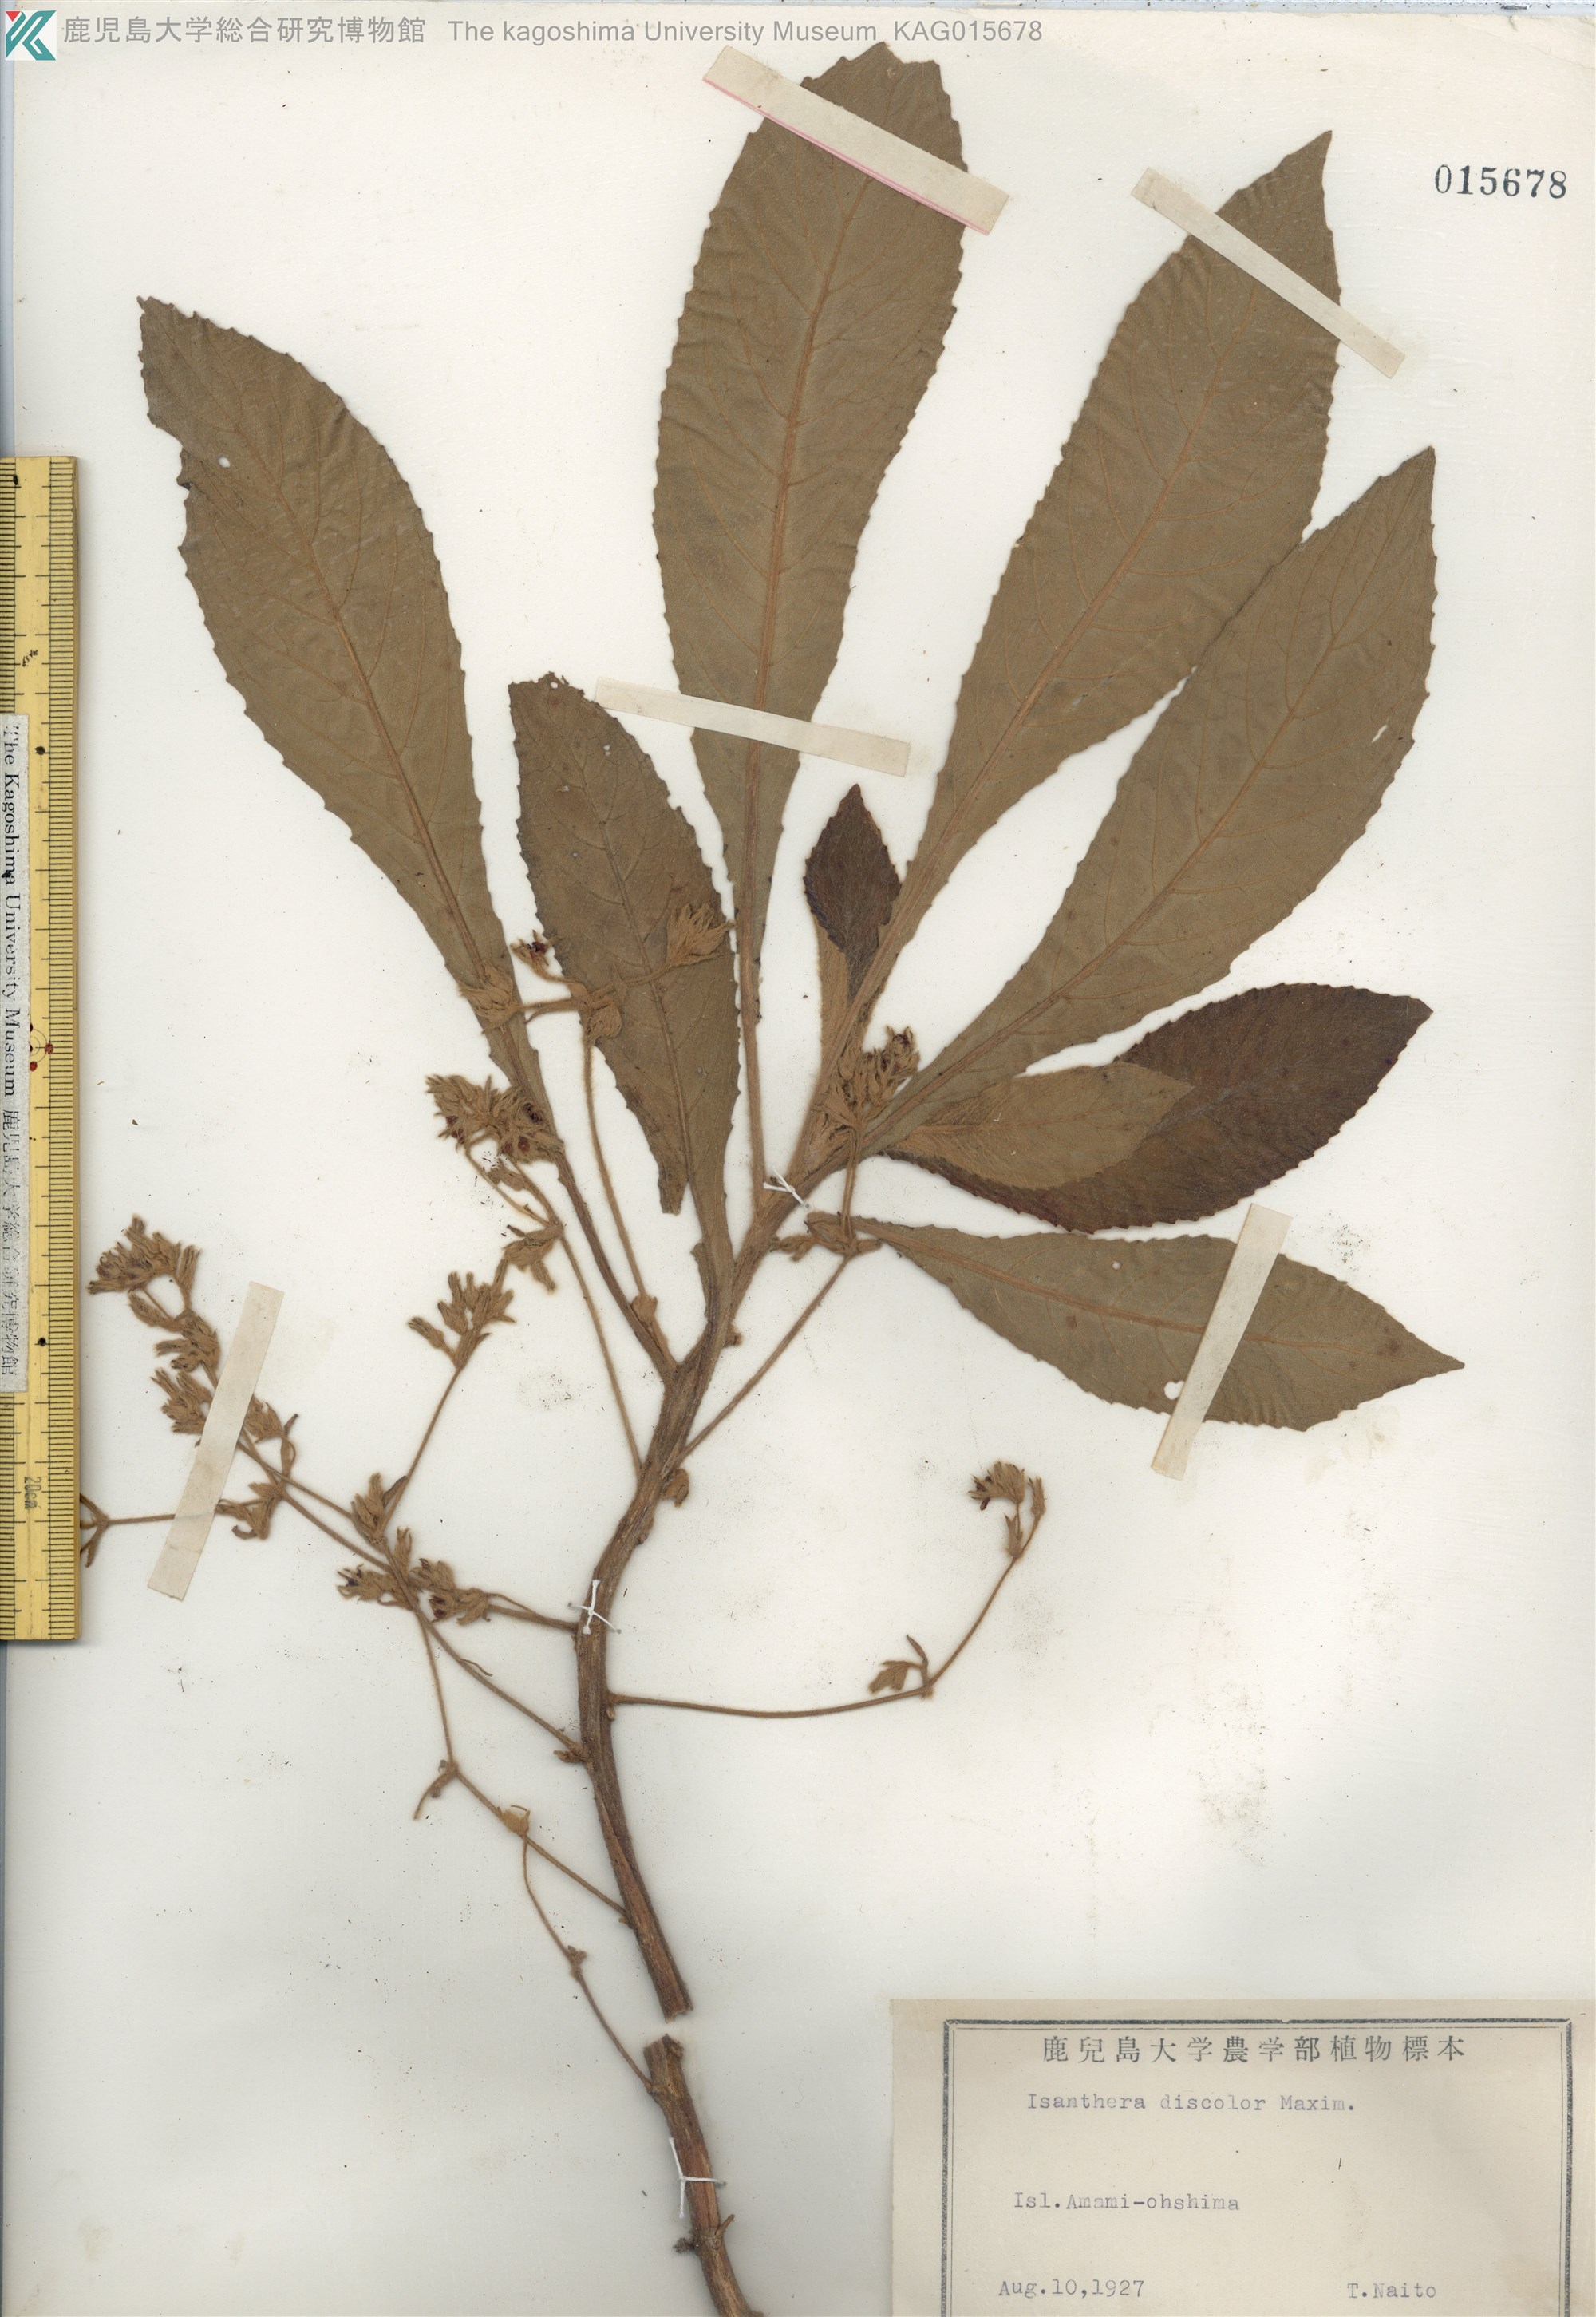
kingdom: Plantae
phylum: Tracheophyta
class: Magnoliopsida
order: Lamiales
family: Gesneriaceae
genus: Rhynchotechum
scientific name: Rhynchotechum discolor
